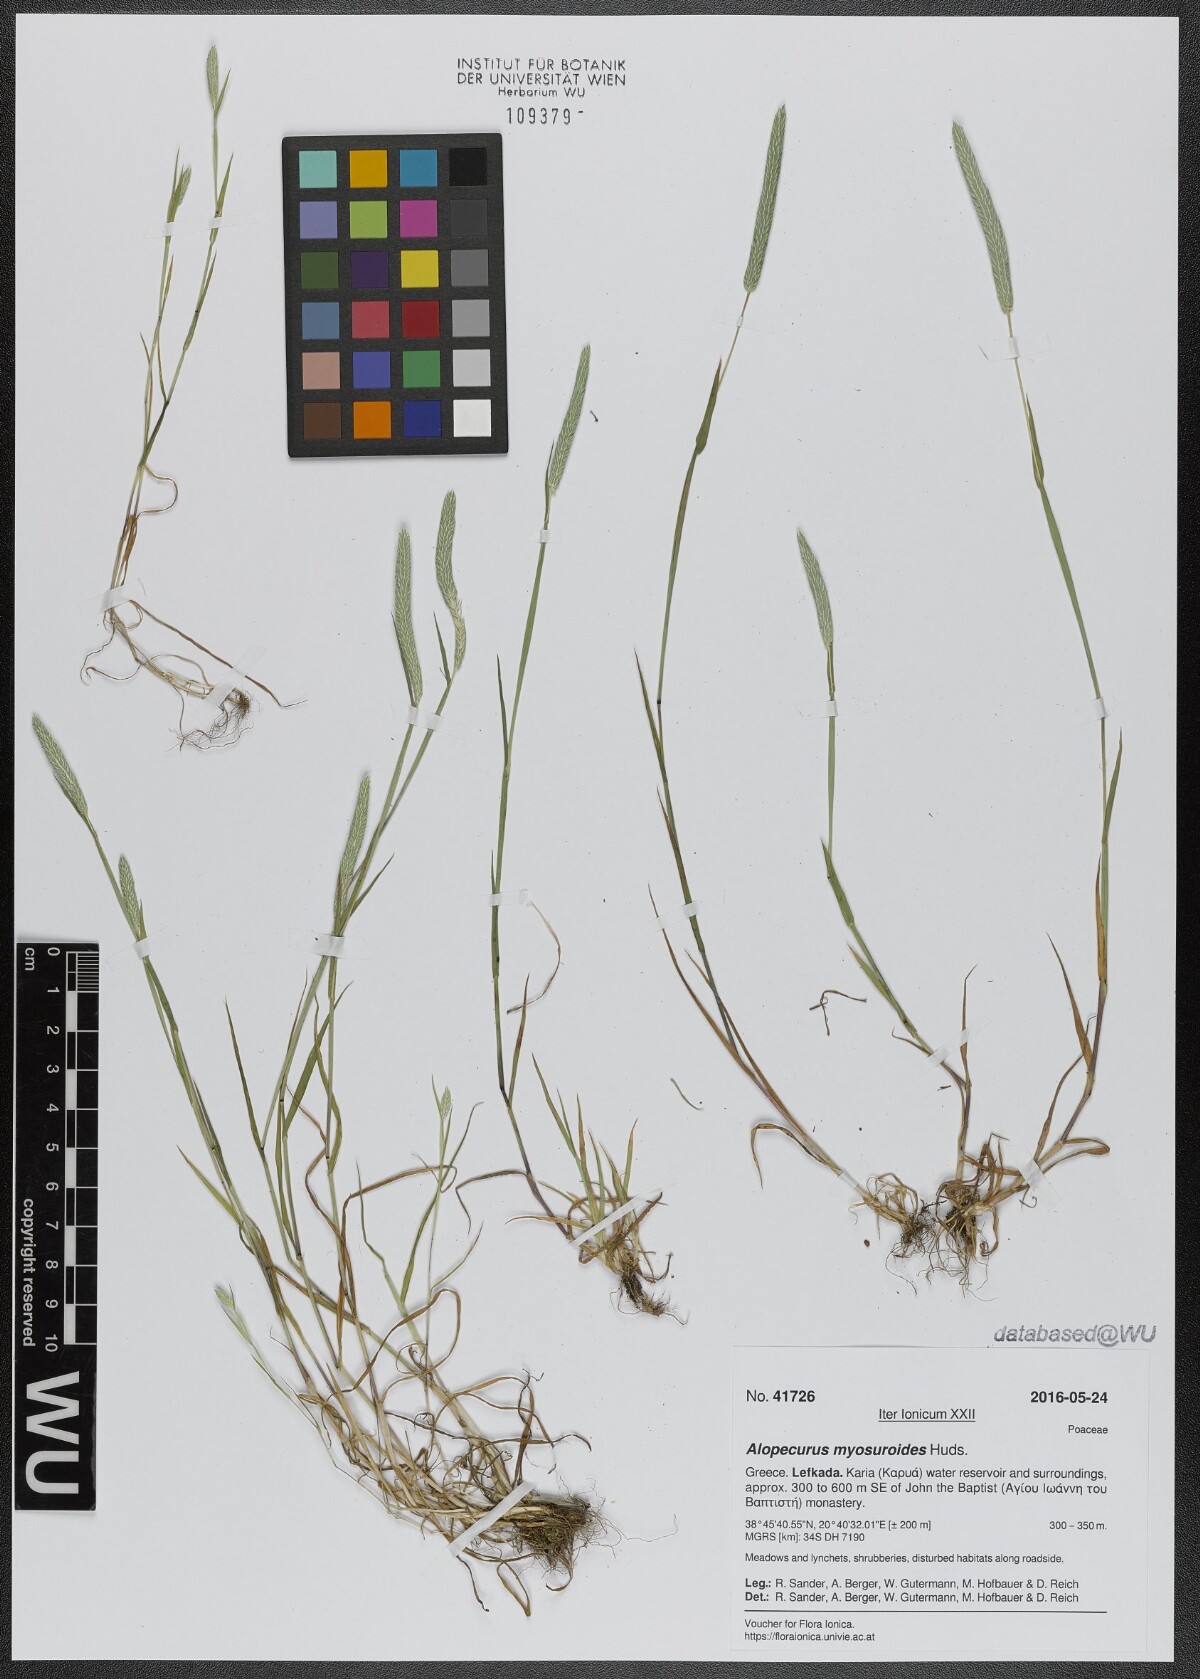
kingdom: Plantae
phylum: Tracheophyta
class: Liliopsida
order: Poales
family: Poaceae
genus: Alopecurus
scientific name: Alopecurus myosuroides
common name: Black-grass
